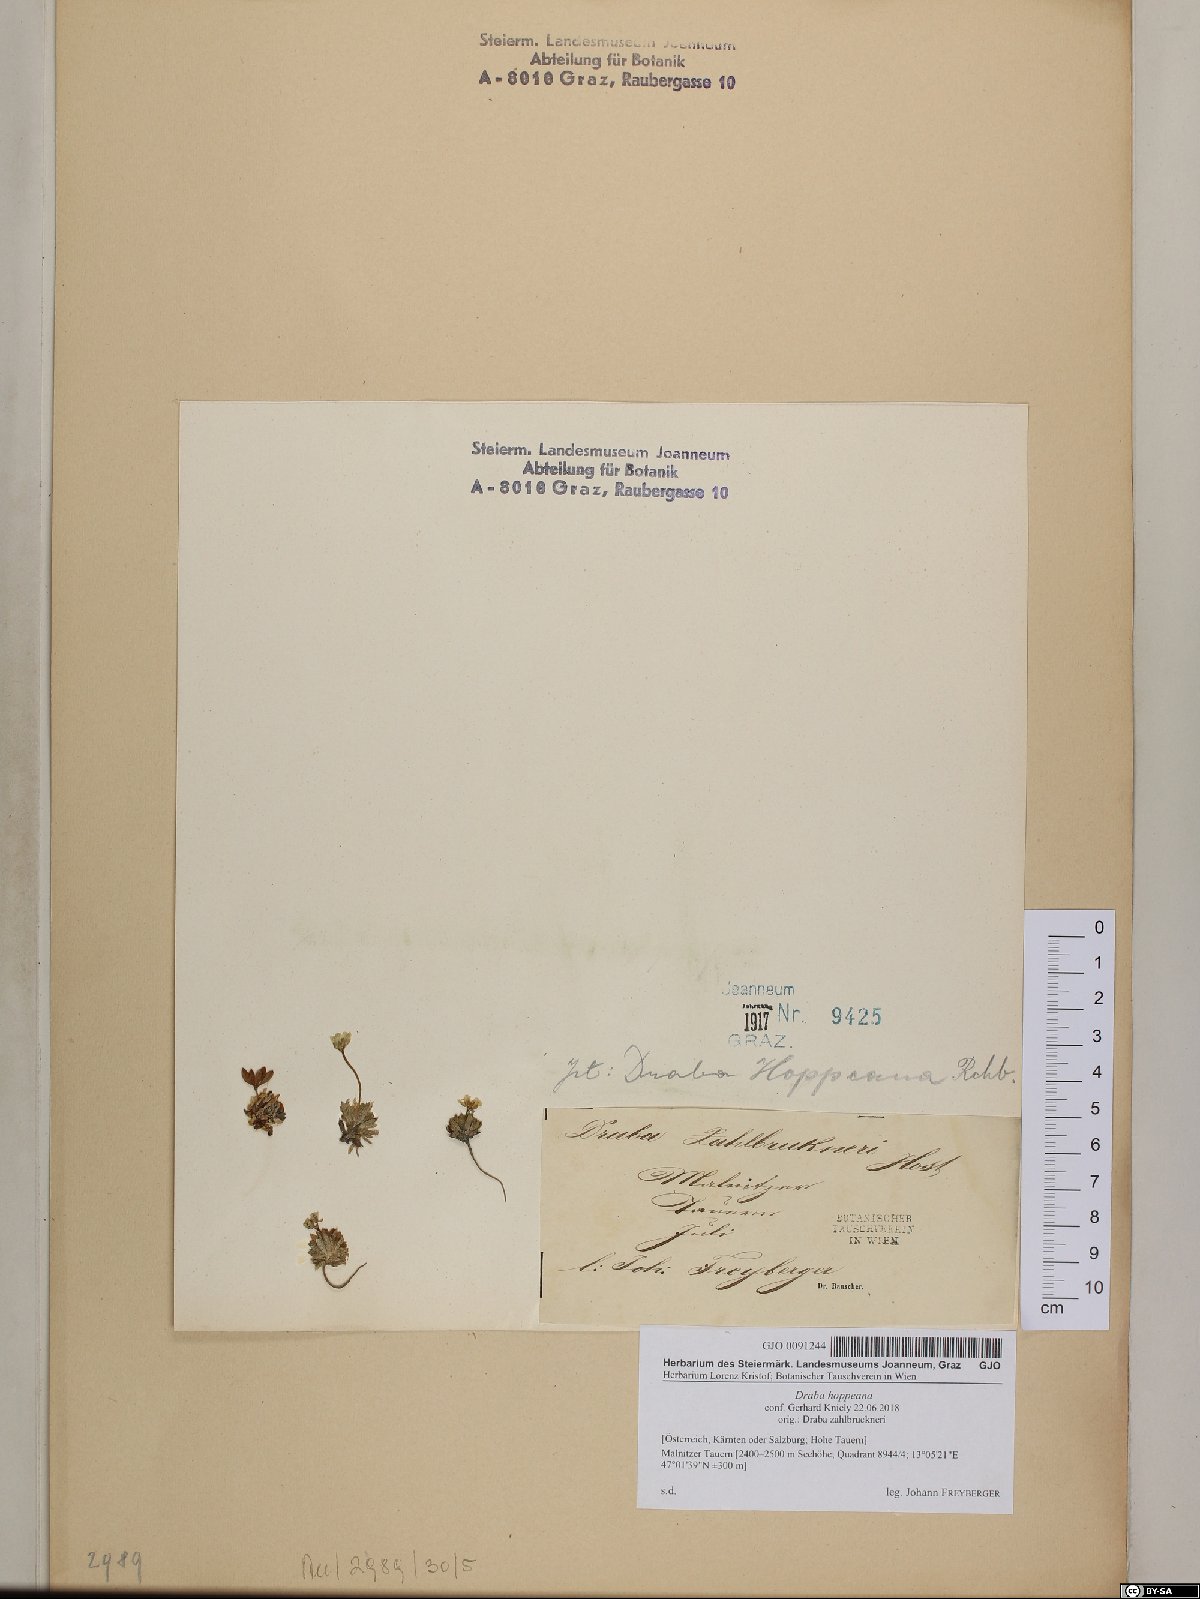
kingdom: Plantae
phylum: Tracheophyta
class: Magnoliopsida
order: Brassicales
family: Brassicaceae
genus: Draba
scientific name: Draba hoppeana
